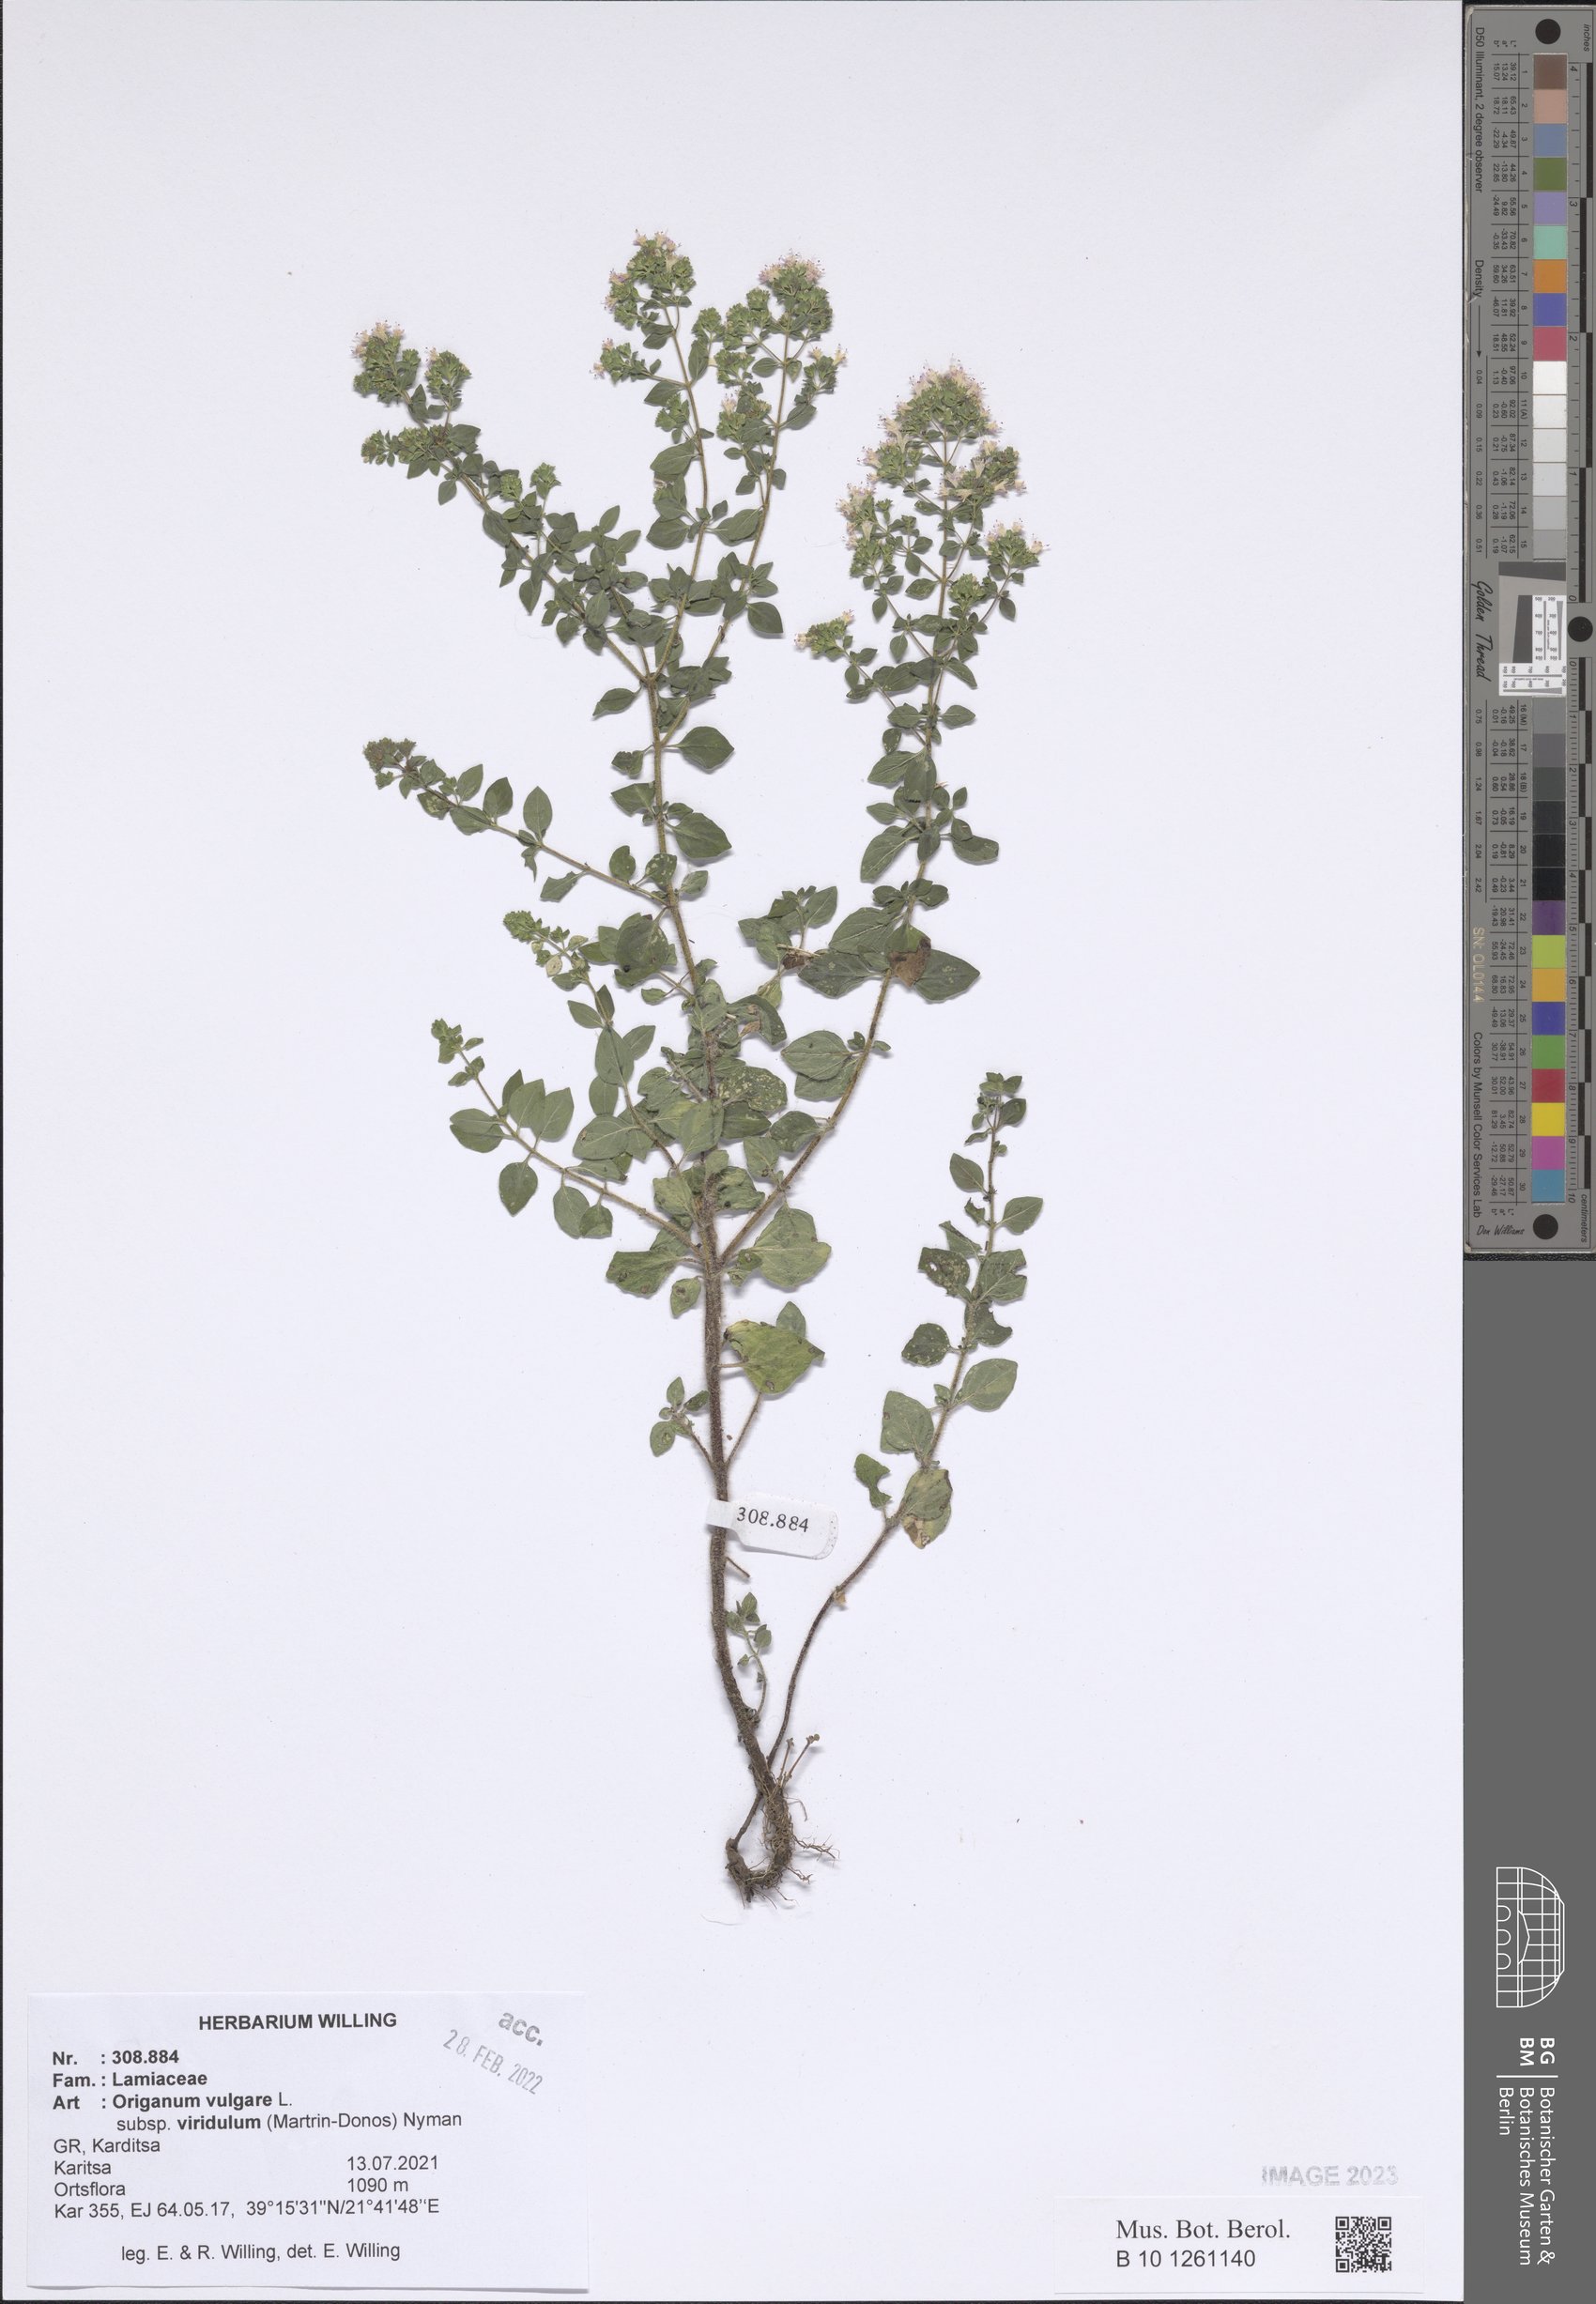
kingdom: Plantae
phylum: Tracheophyta
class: Magnoliopsida
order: Lamiales
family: Lamiaceae
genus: Origanum
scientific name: Origanum vulgare
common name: Wild marjoram
